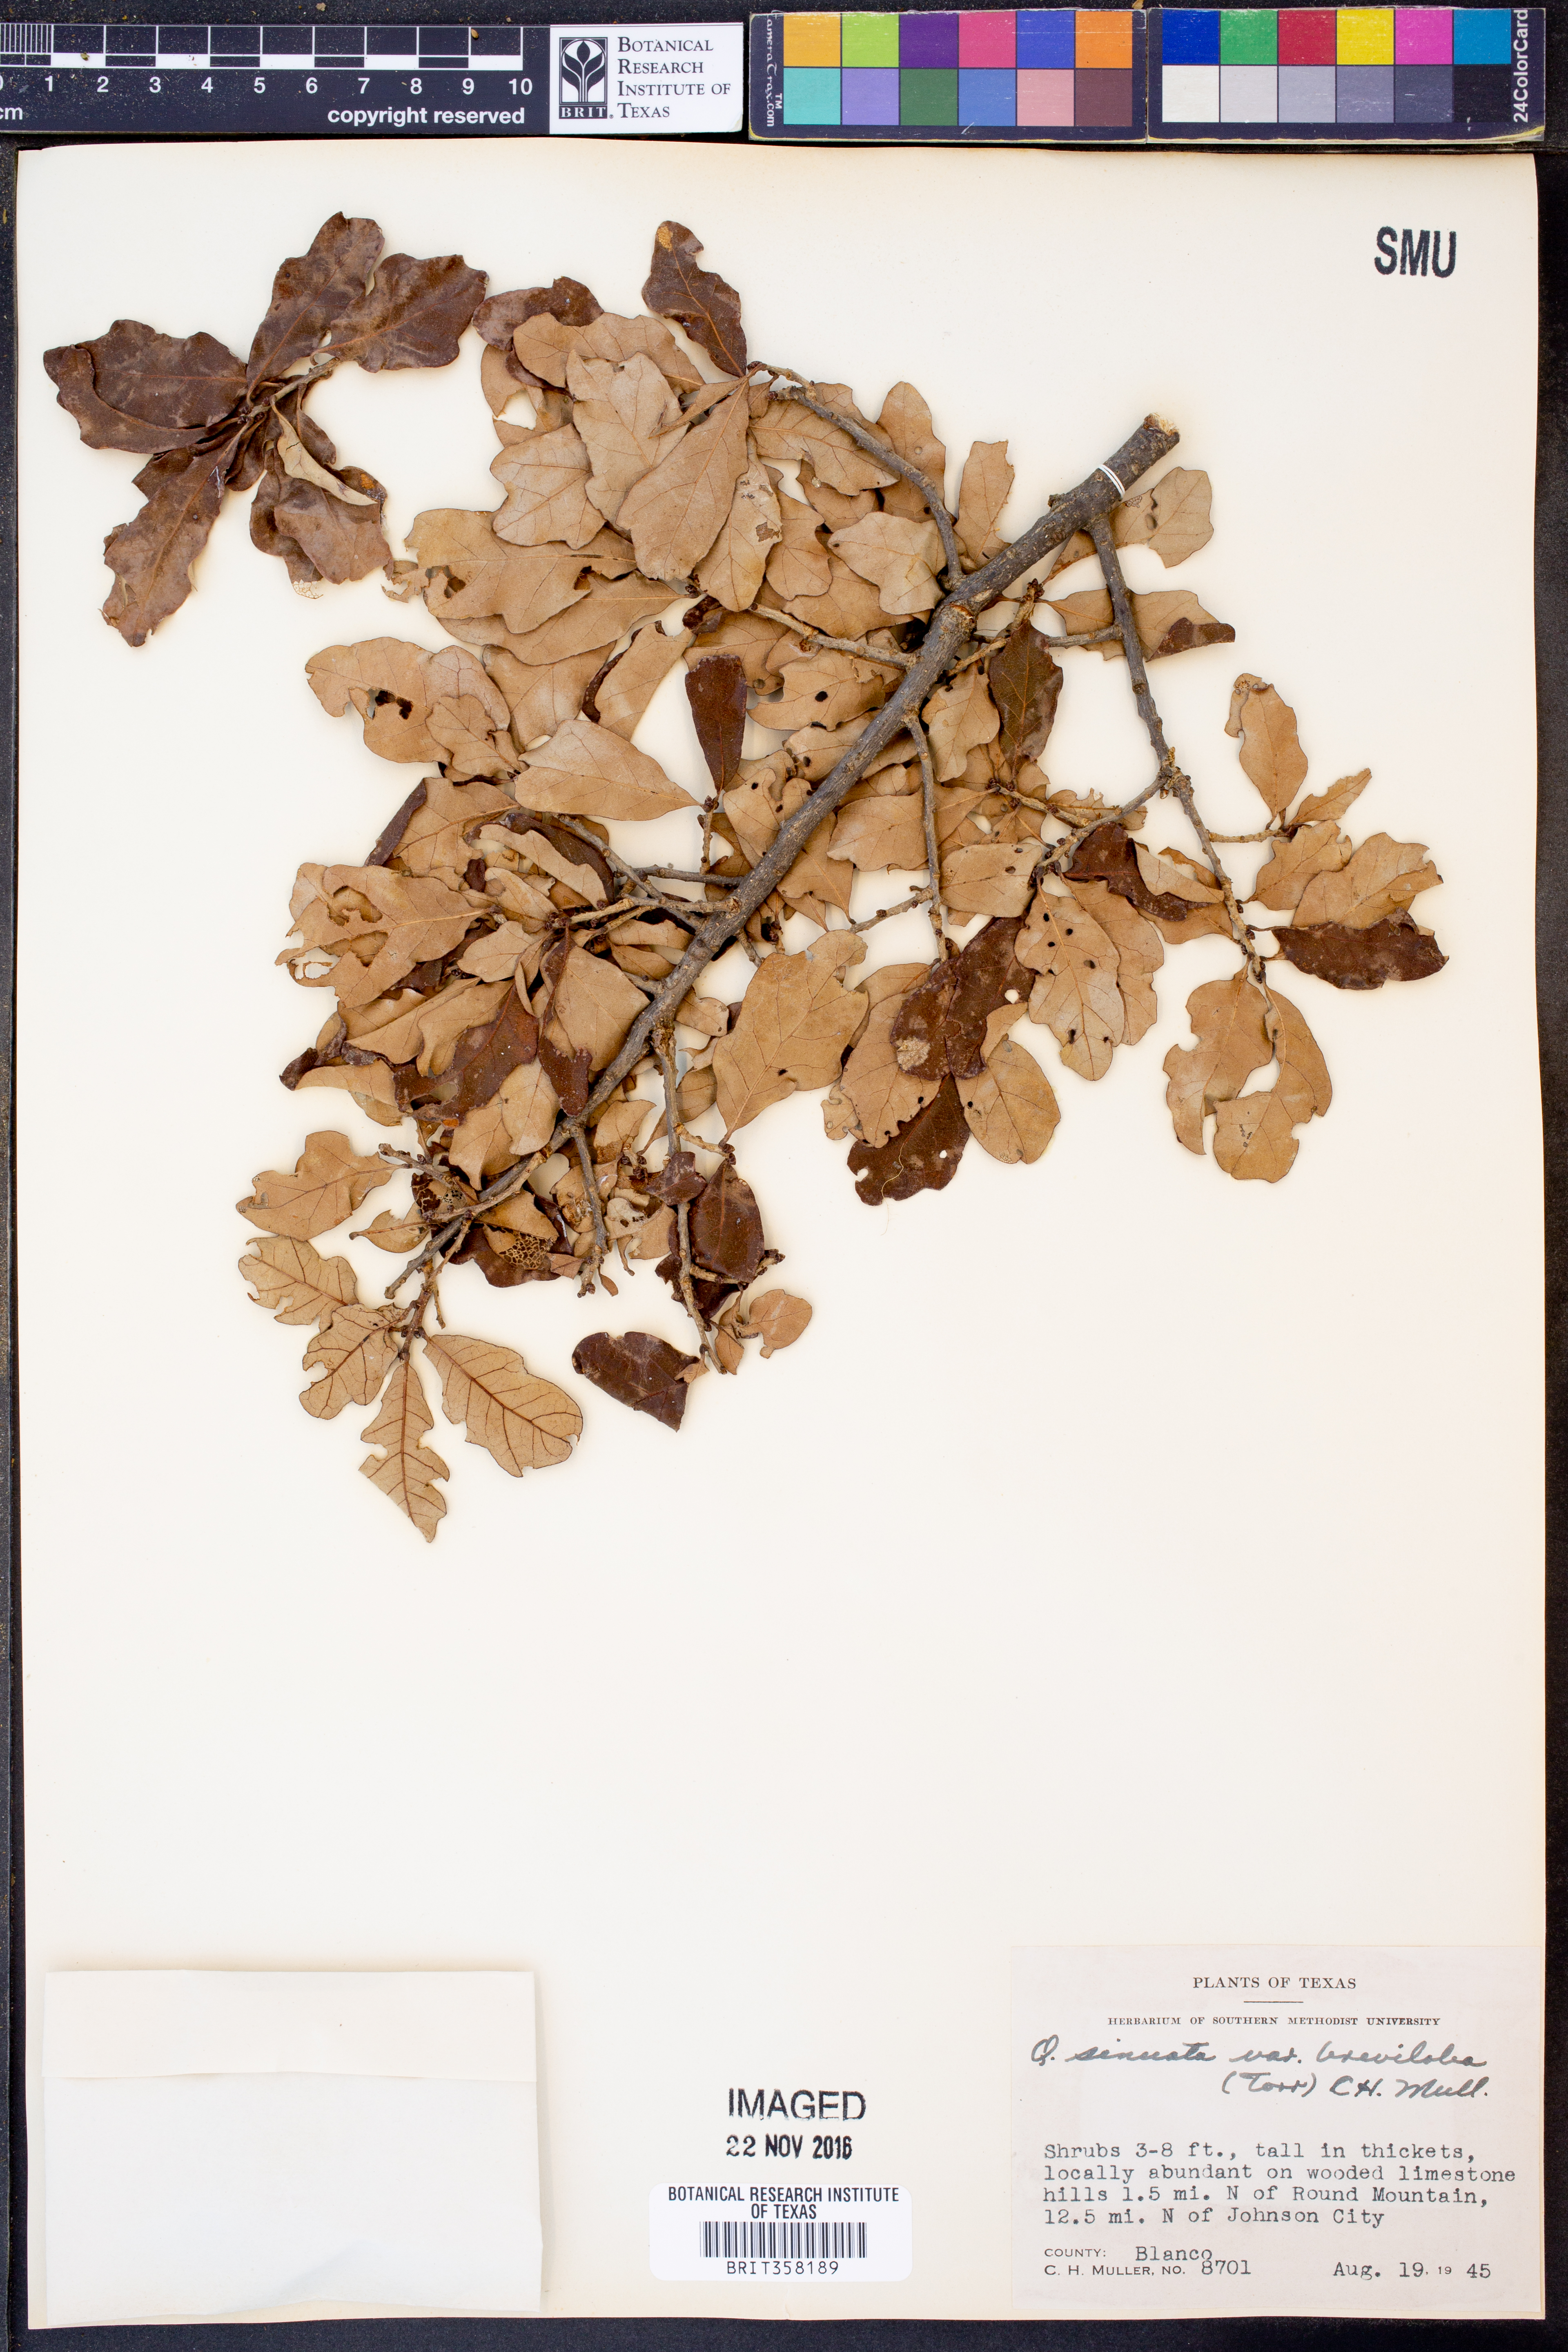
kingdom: Plantae
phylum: Tracheophyta
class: Magnoliopsida
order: Fagales
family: Fagaceae
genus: Quercus
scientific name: Quercus sinuata
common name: Durand oak
